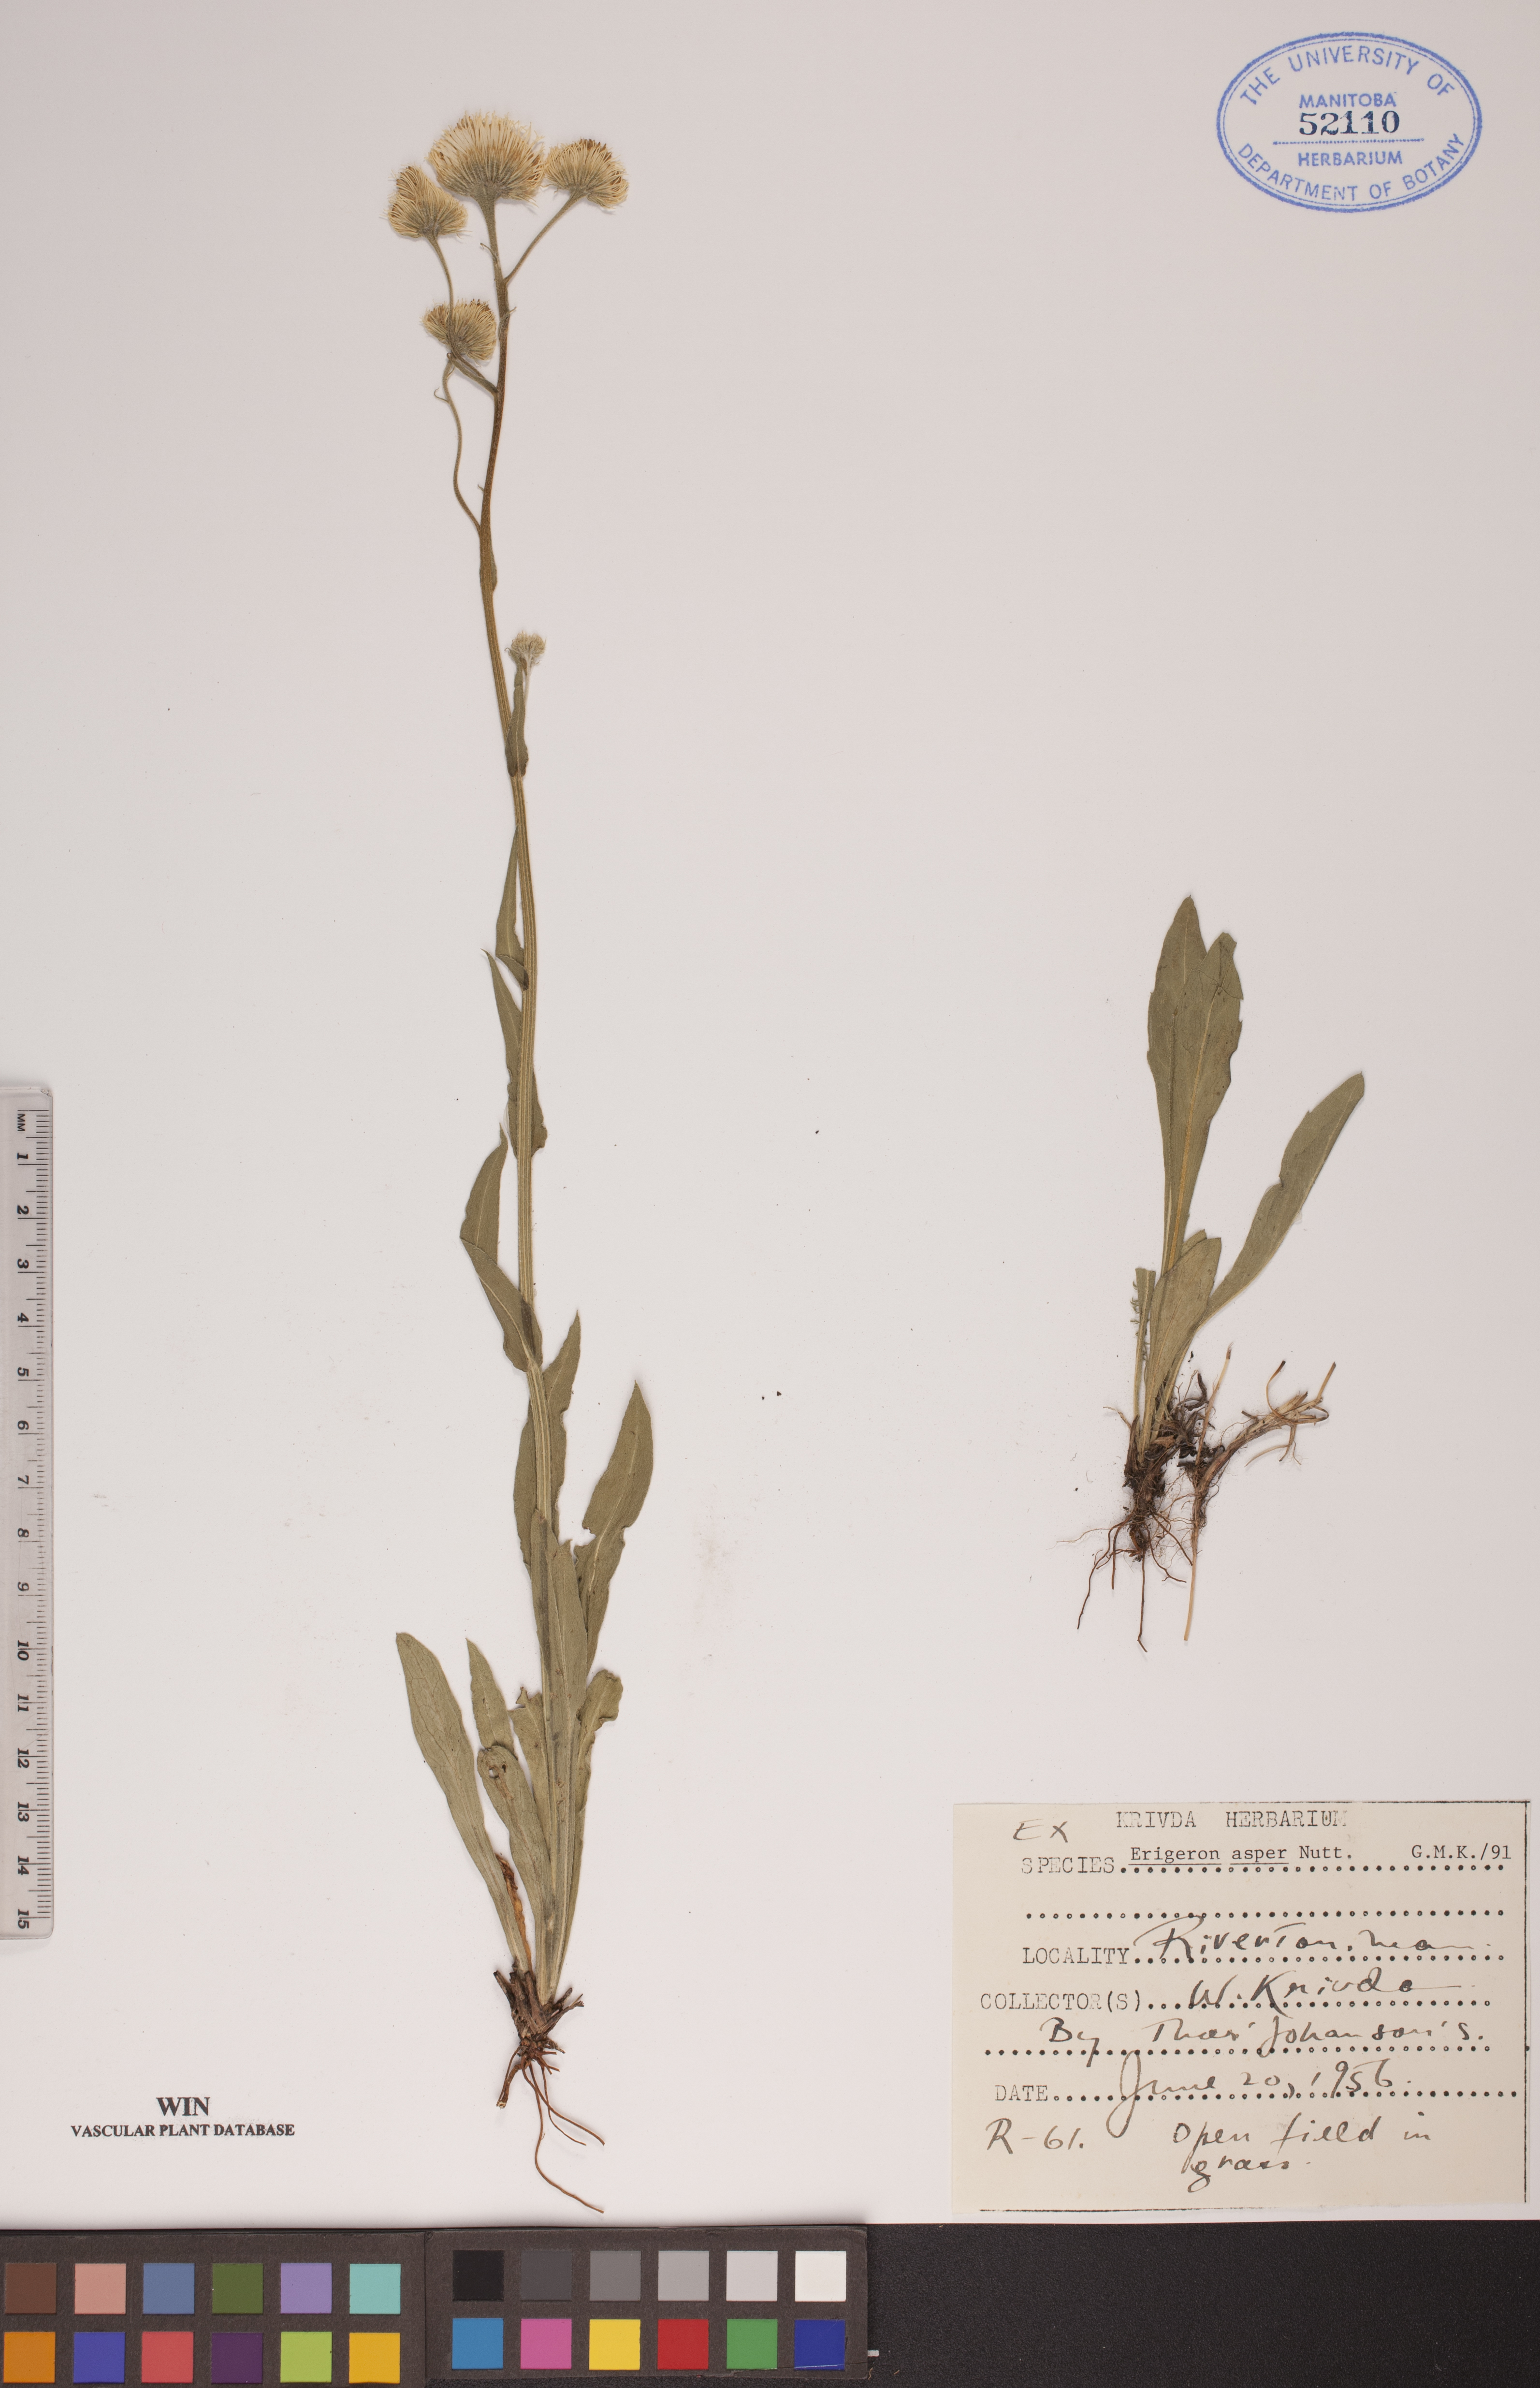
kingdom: Plantae
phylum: Tracheophyta
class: Magnoliopsida
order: Asterales
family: Asteraceae
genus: Erigeron
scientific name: Erigeron glabellus
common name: Smooth fleabane
